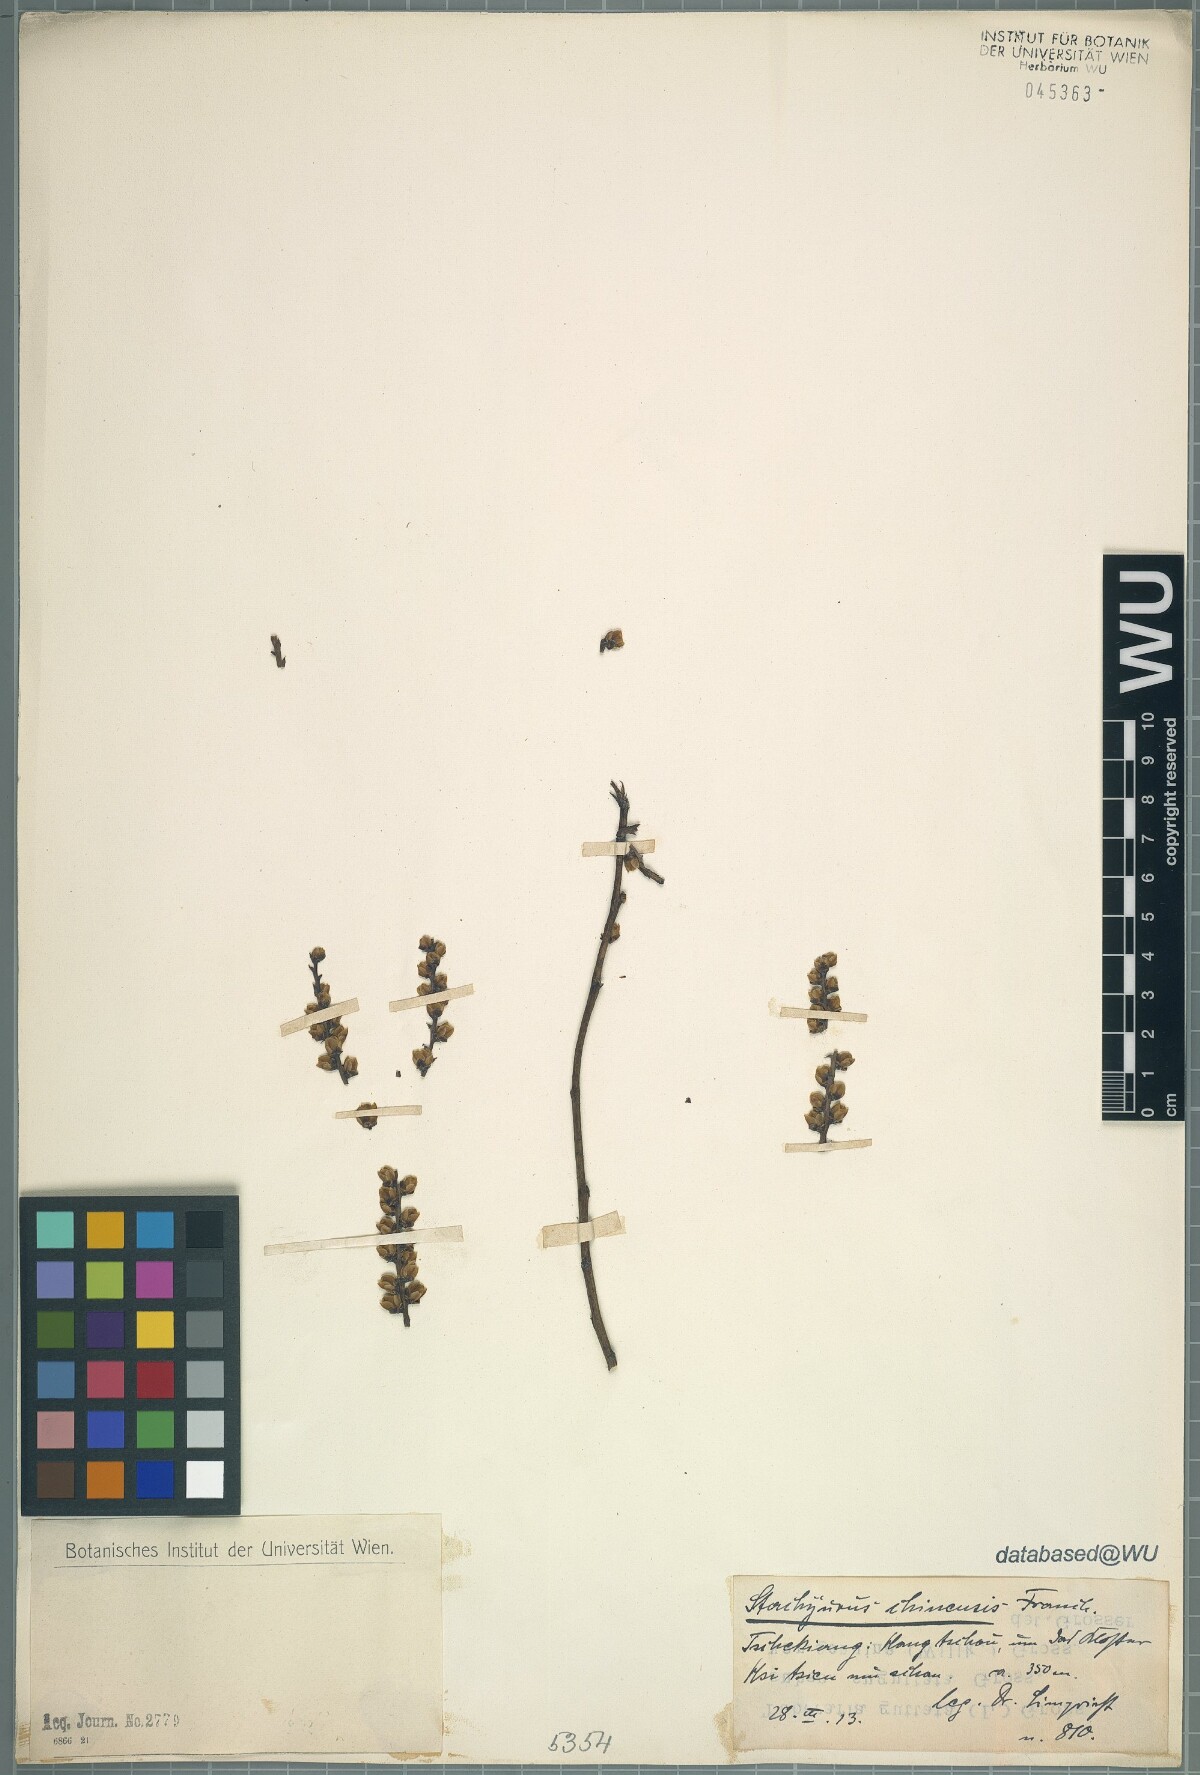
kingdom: Plantae
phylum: Tracheophyta
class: Magnoliopsida
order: Crossosomatales
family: Stachyuraceae
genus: Stachyurus
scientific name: Stachyurus chinensis
